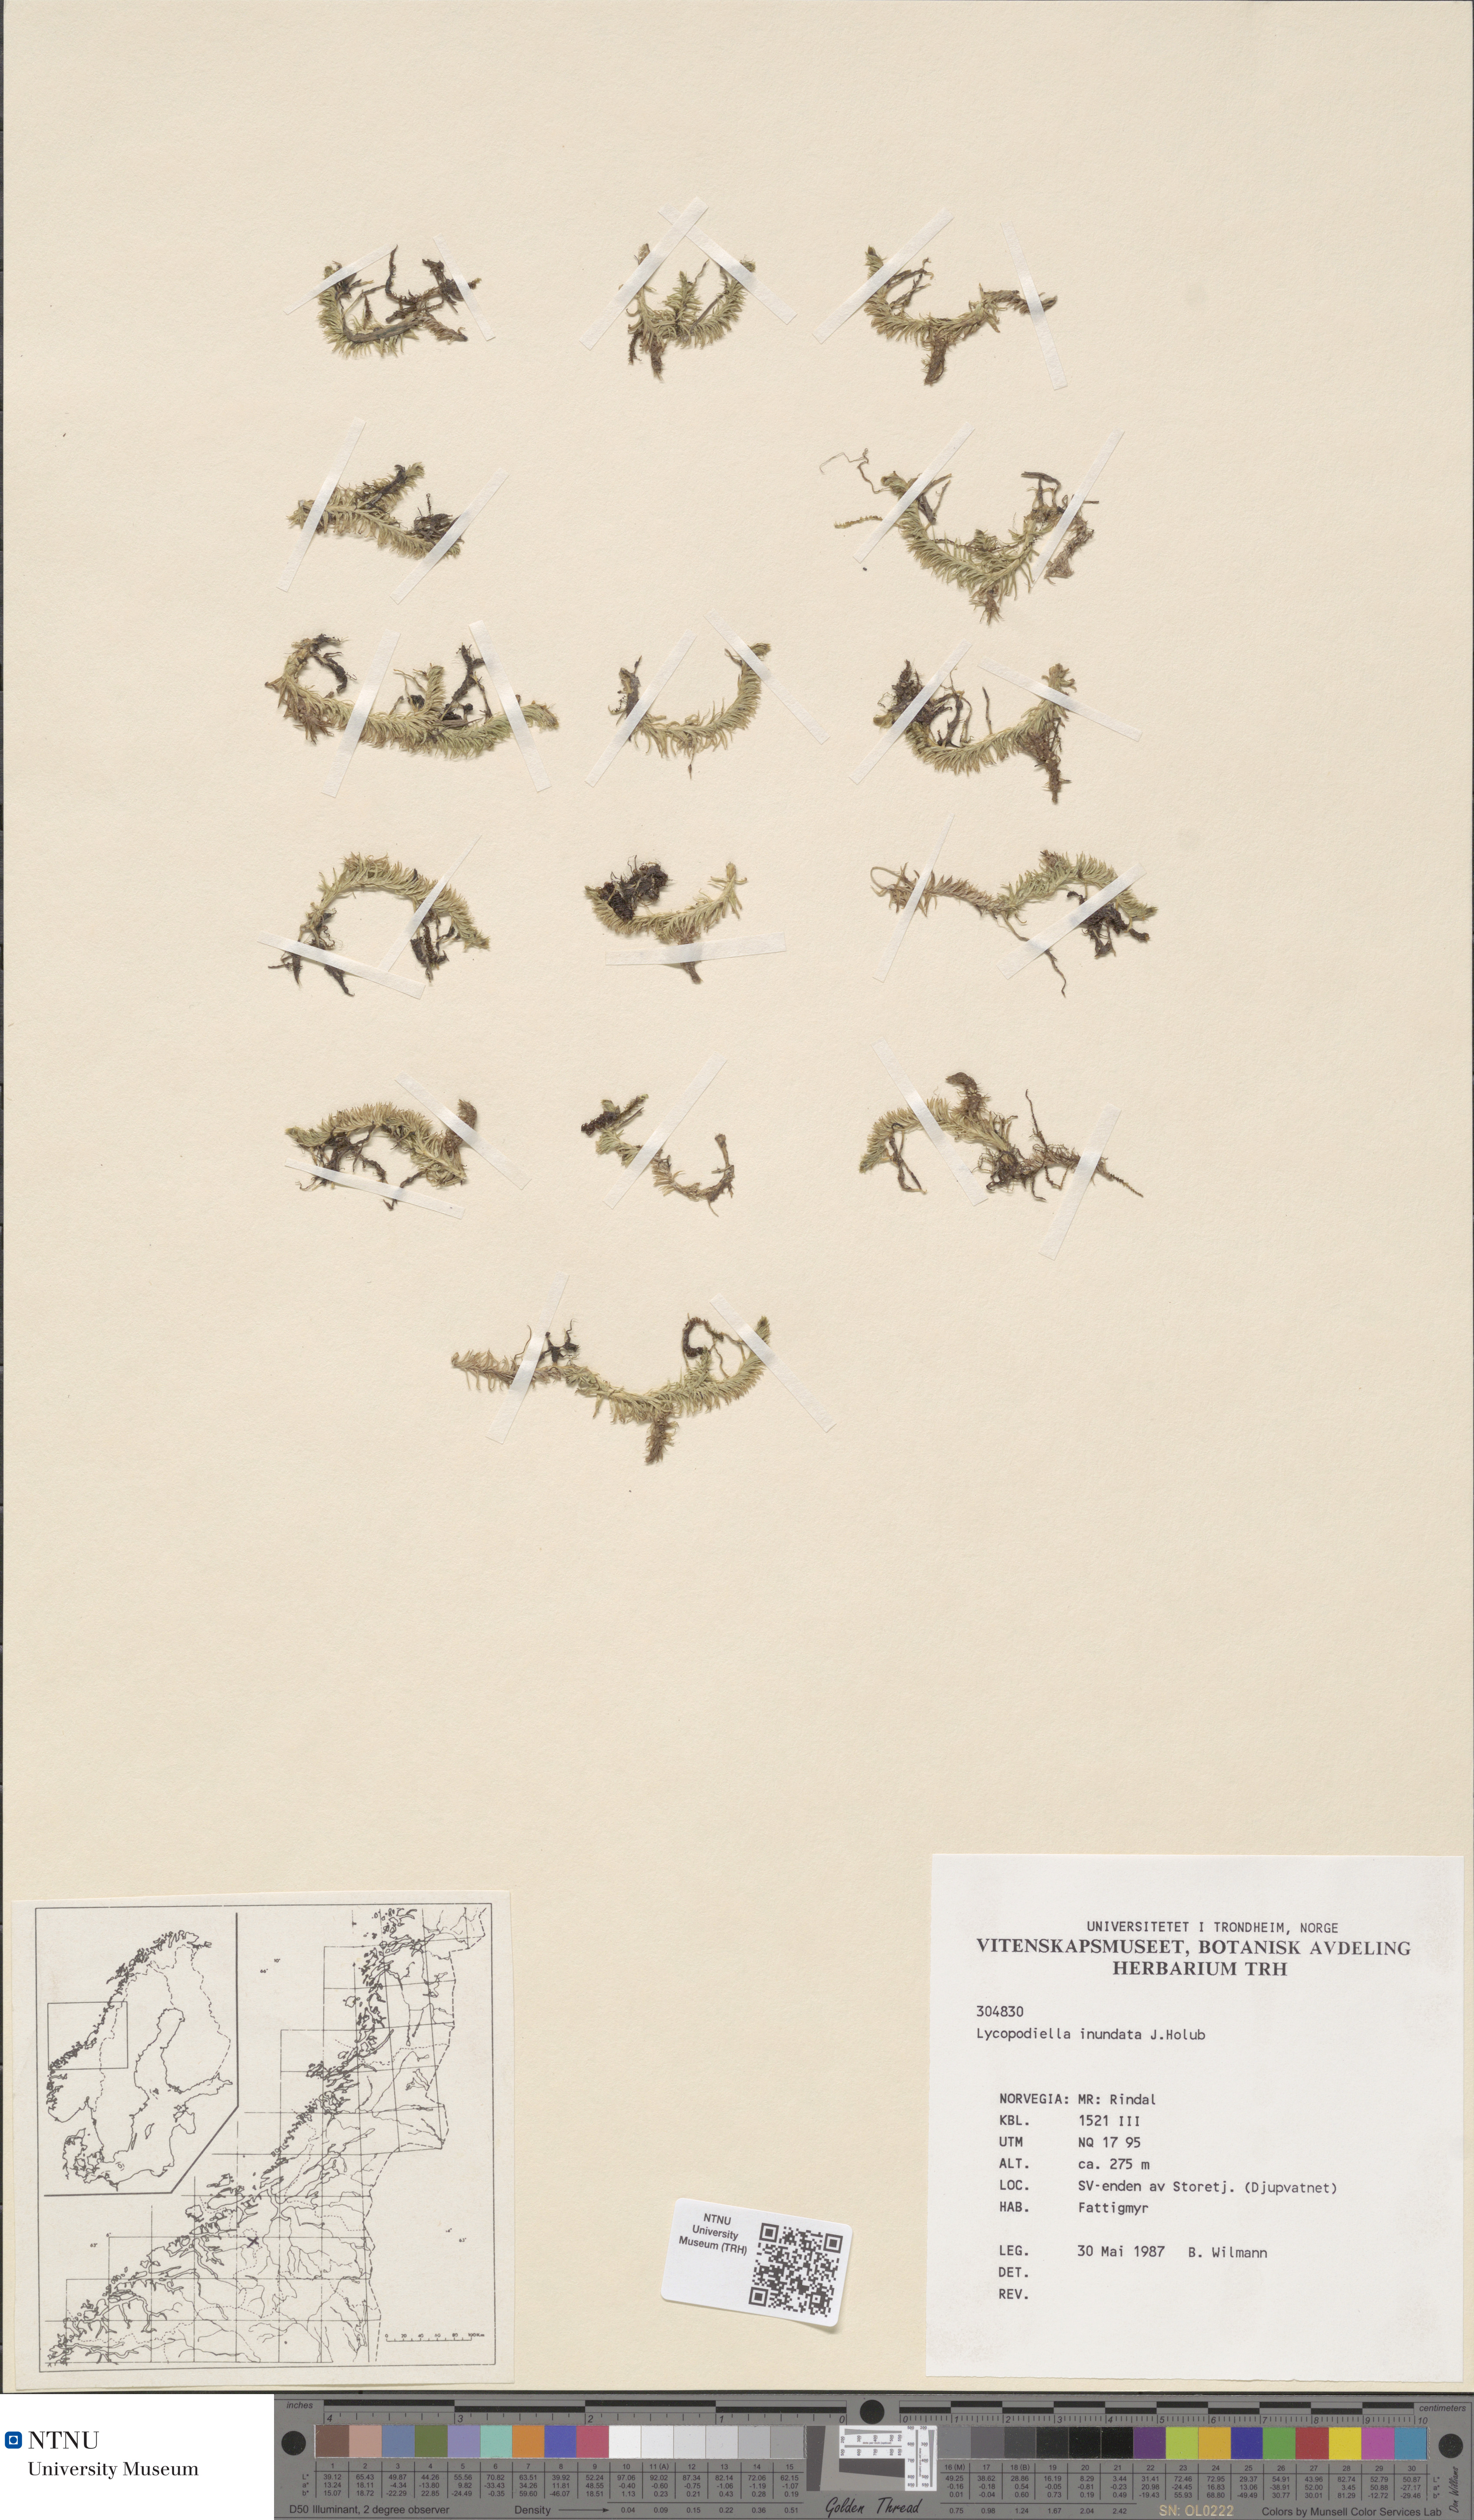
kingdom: Plantae
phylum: Tracheophyta
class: Lycopodiopsida
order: Lycopodiales
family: Lycopodiaceae
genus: Lycopodiella
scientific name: Lycopodiella inundata
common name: Marsh clubmoss
